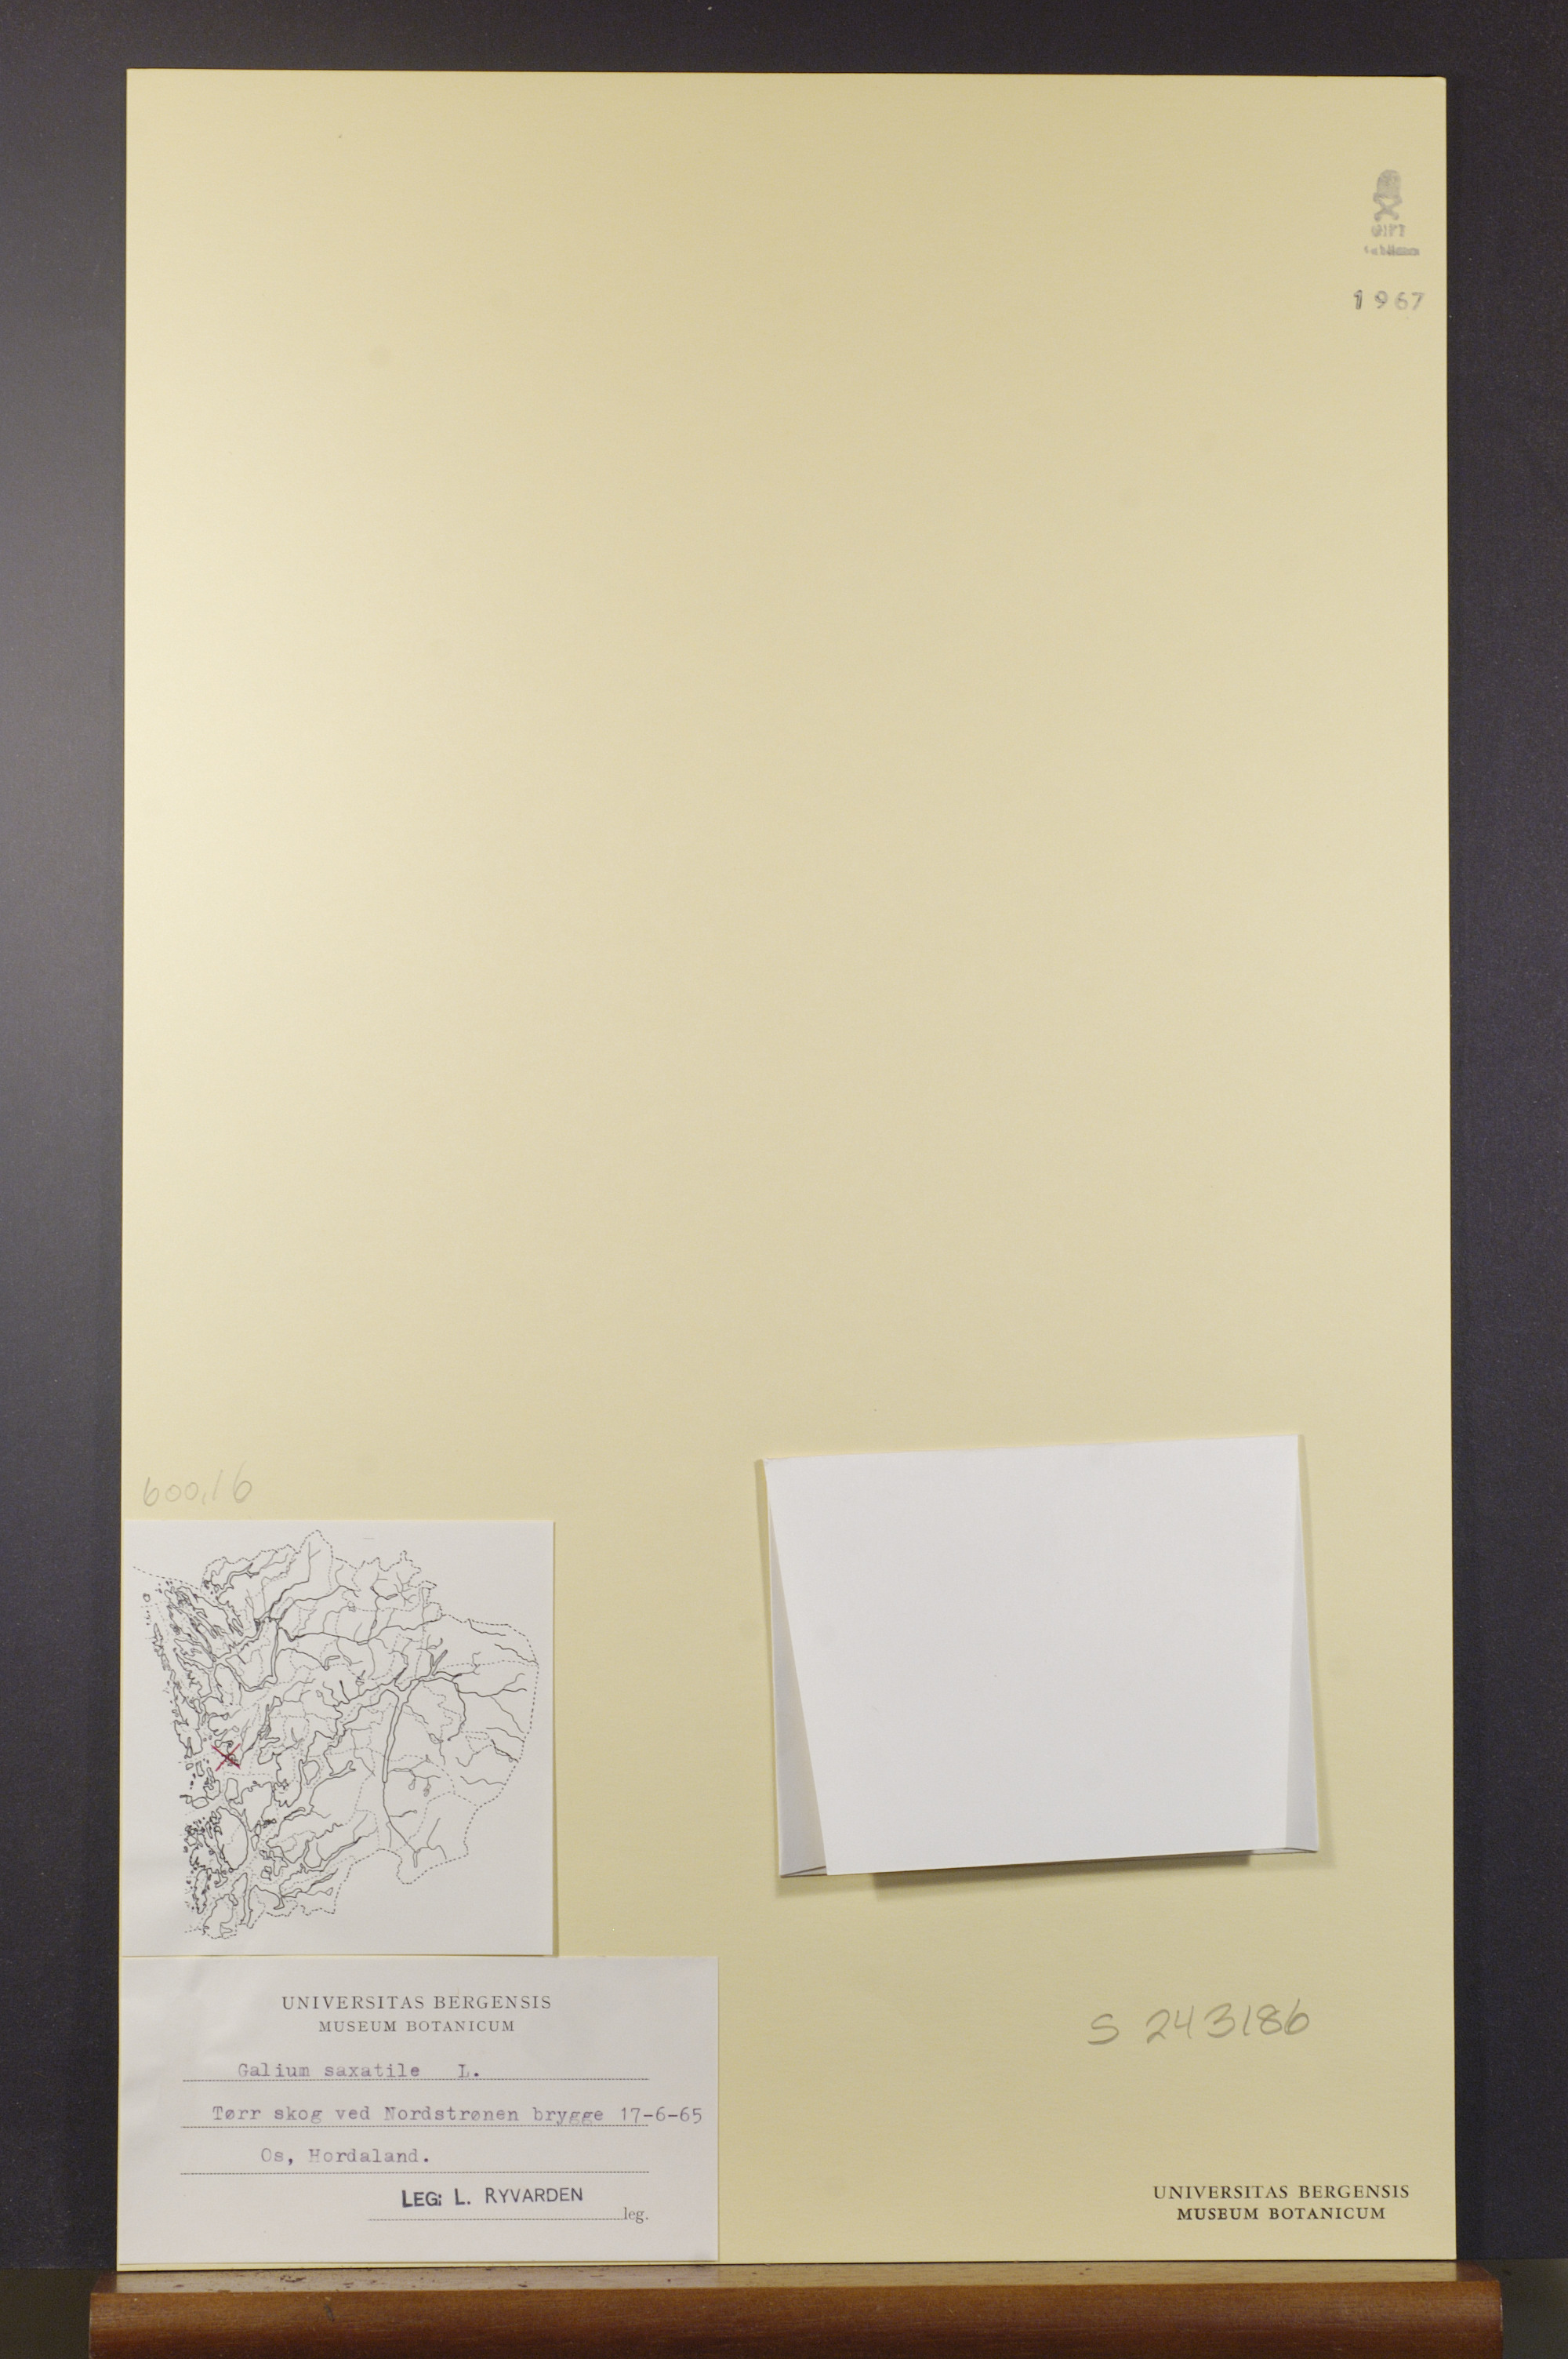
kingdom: Plantae
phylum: Tracheophyta
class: Magnoliopsida
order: Gentianales
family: Rubiaceae
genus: Galium
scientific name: Galium saxatile
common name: Heath bedstraw
